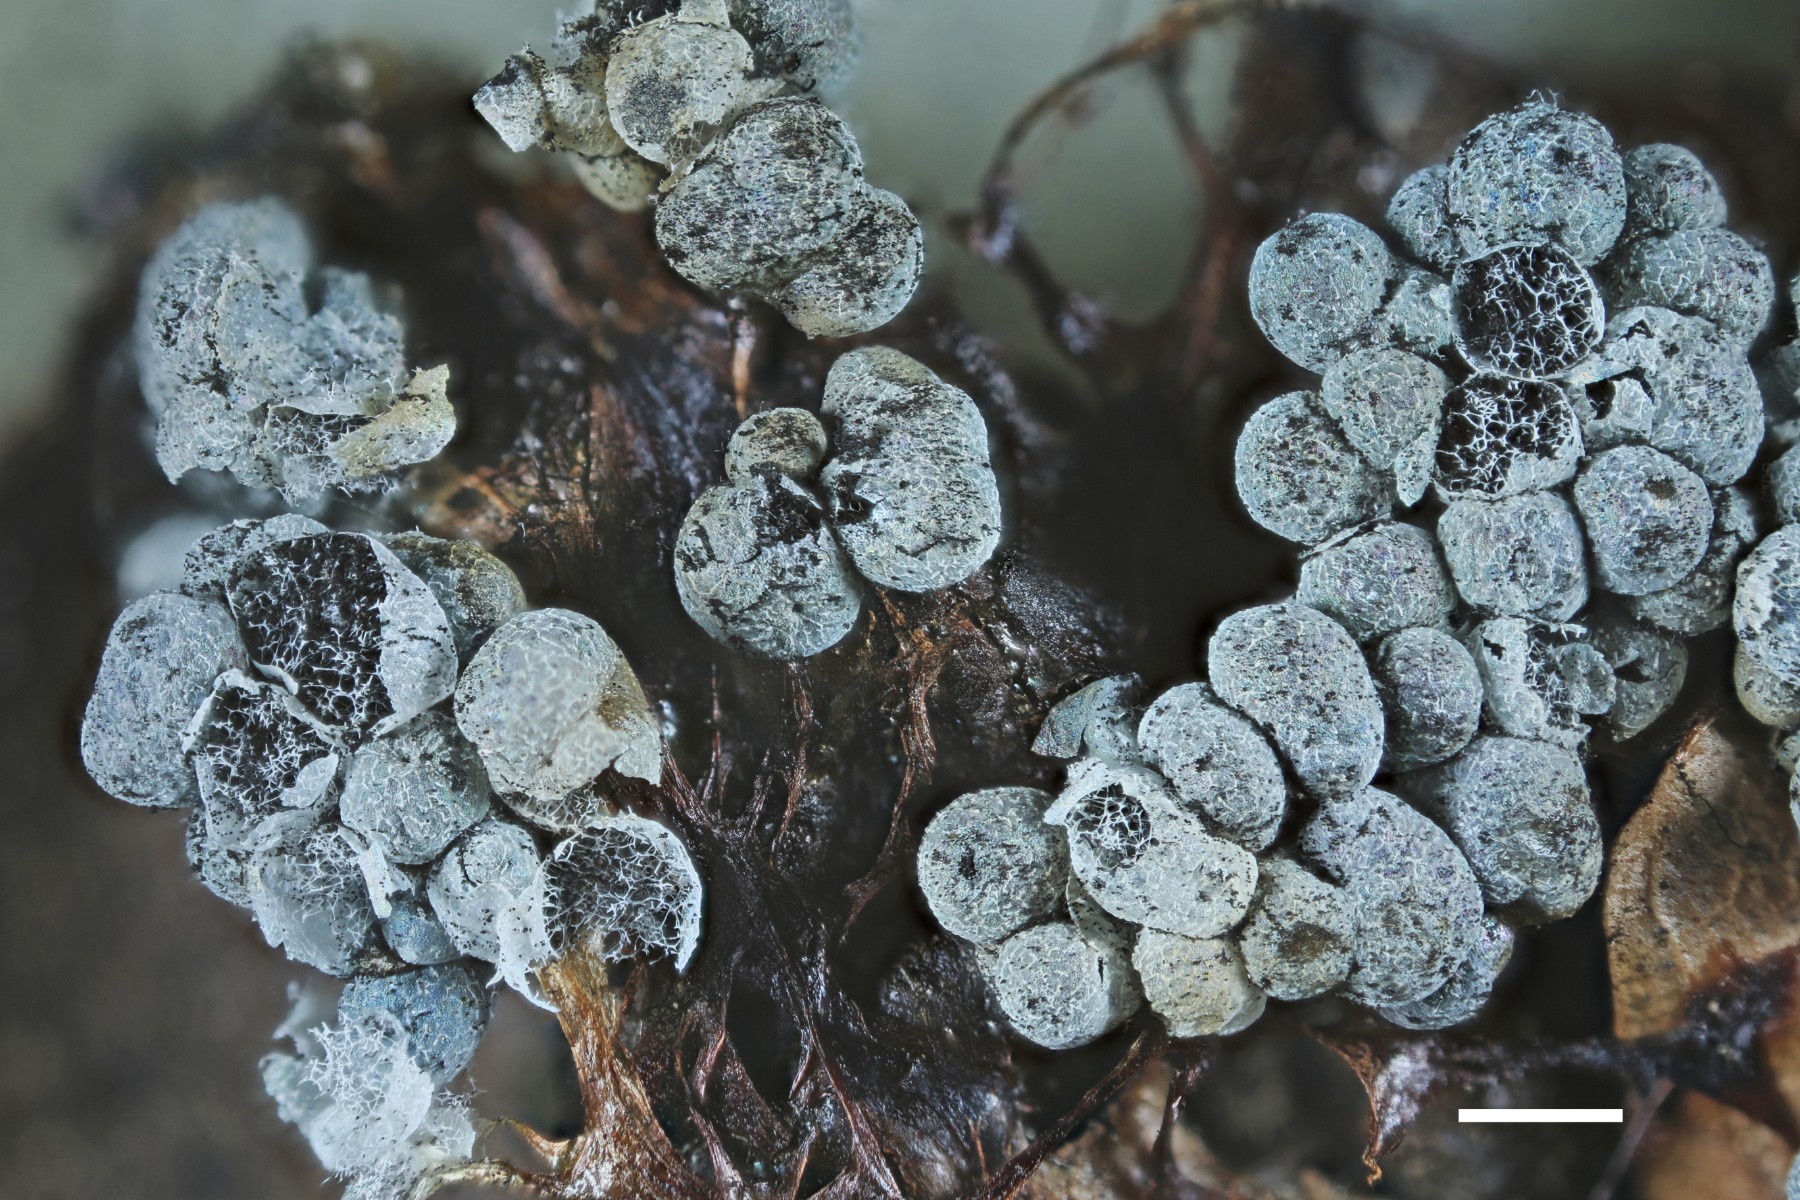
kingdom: Protozoa
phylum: Mycetozoa
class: Myxomycetes
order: Physarales
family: Physaraceae
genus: Badhamia
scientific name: Badhamia utricularis
